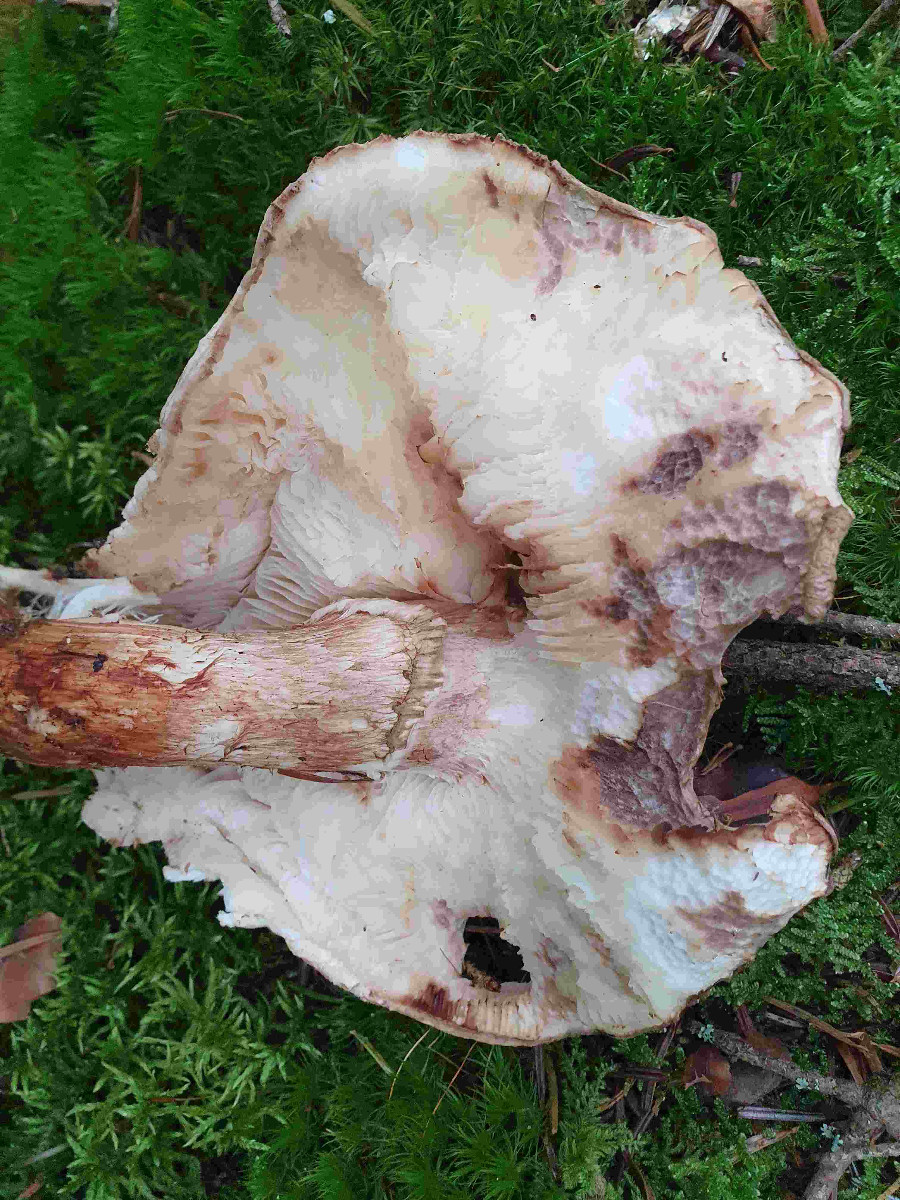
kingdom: Fungi
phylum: Basidiomycota
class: Agaricomycetes
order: Agaricales
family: Tricholomataceae
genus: Tricholoma
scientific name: Tricholoma matsutake
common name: duft-ridderhat
